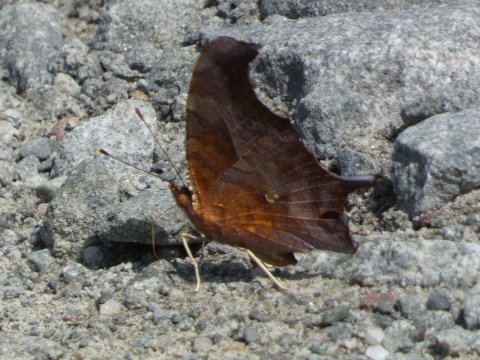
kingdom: Animalia
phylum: Arthropoda
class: Insecta
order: Lepidoptera
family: Nymphalidae
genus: Polygonia
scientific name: Polygonia interrogationis
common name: Question Mark
